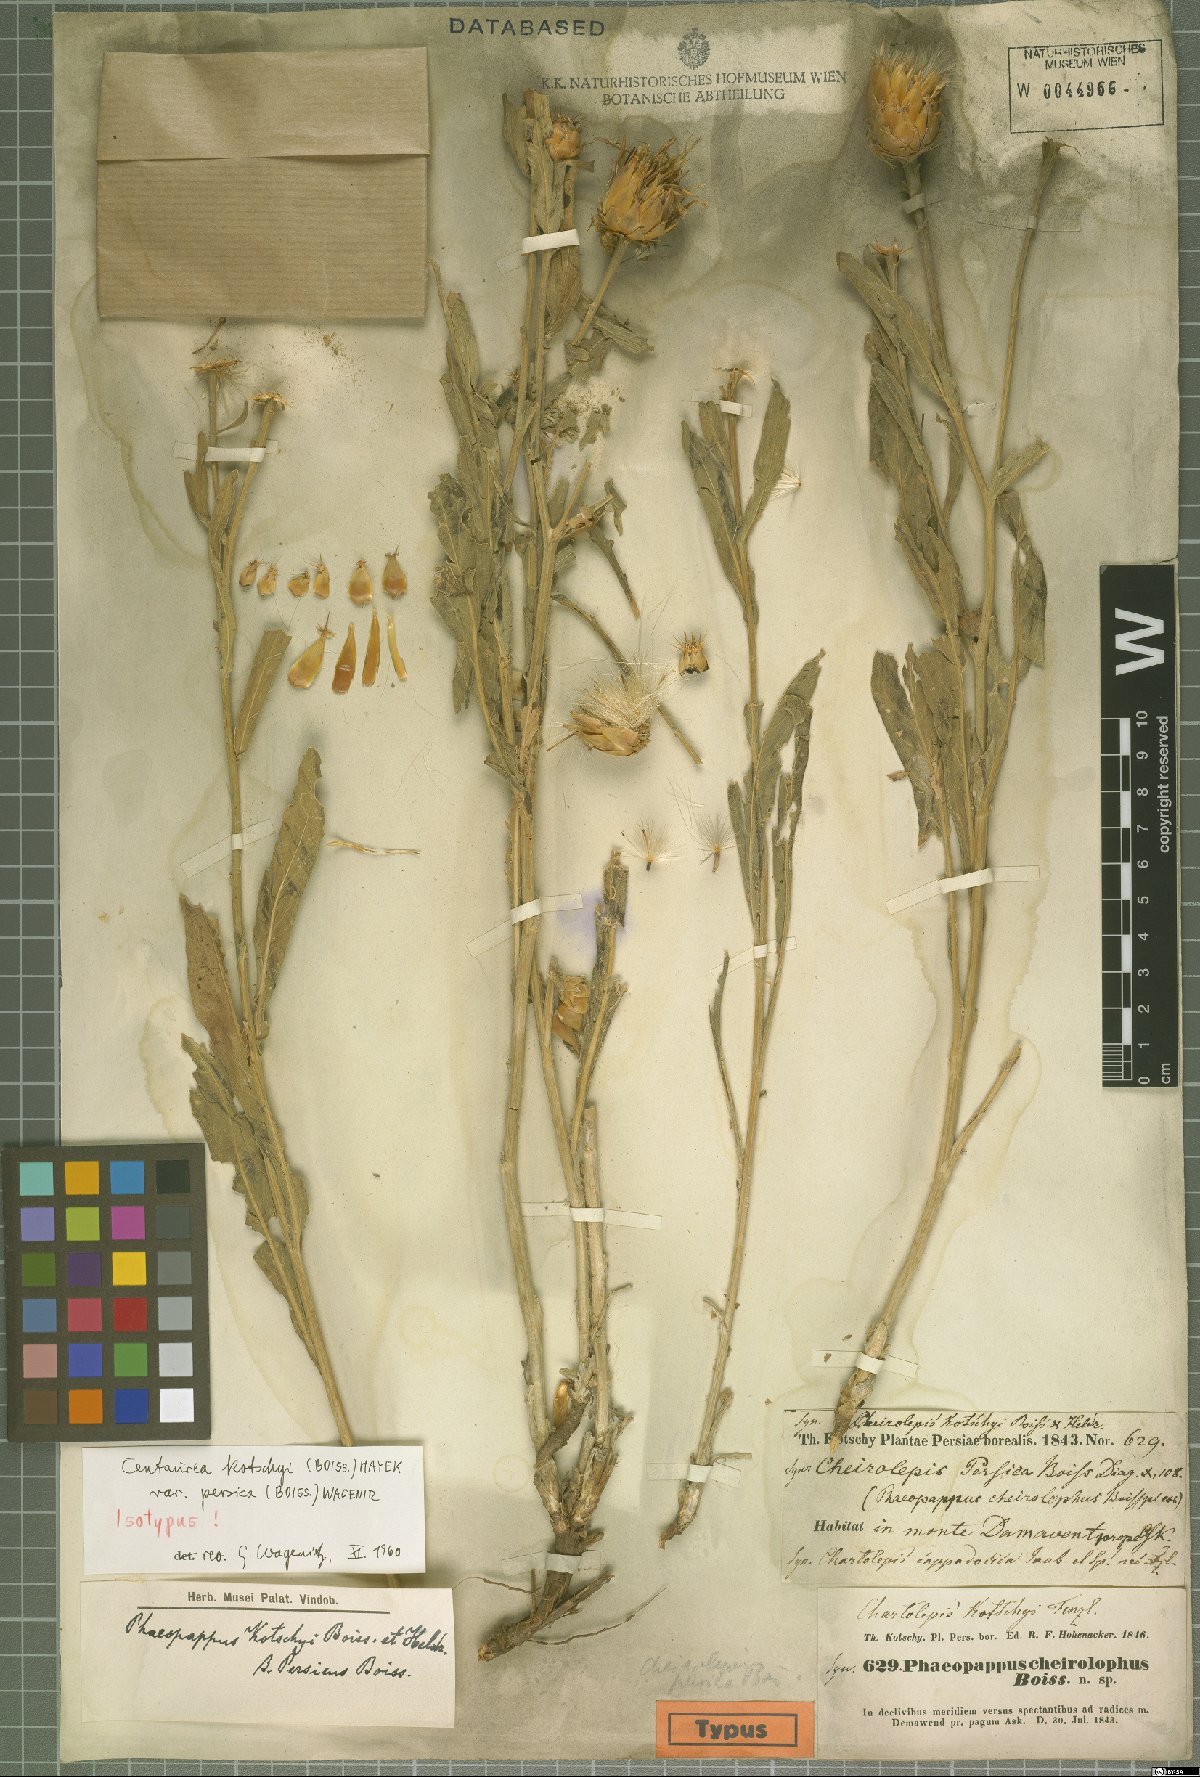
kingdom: Plantae
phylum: Tracheophyta
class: Magnoliopsida
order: Asterales
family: Asteraceae
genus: Centaurea
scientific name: Centaurea kotschyi
